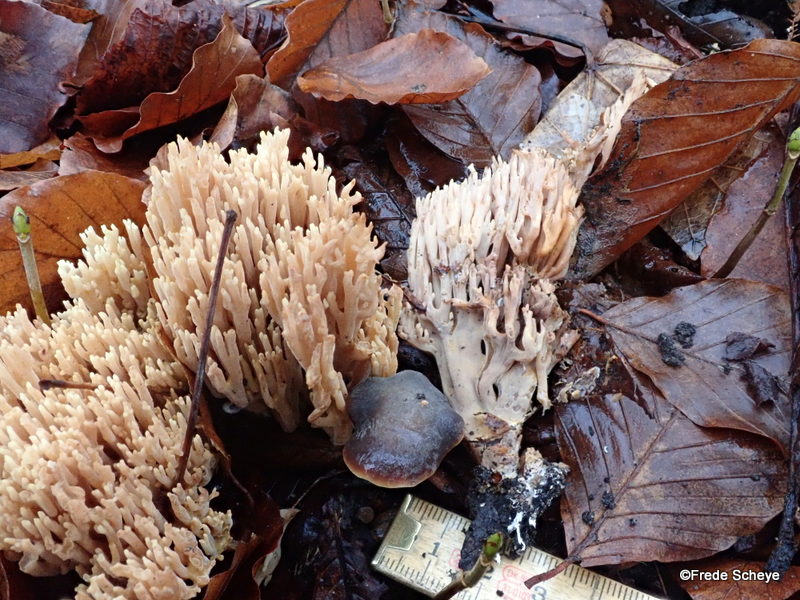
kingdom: Fungi
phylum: Basidiomycota
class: Agaricomycetes
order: Gomphales
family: Gomphaceae
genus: Ramaria
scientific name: Ramaria stricta
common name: rank koralsvamp
